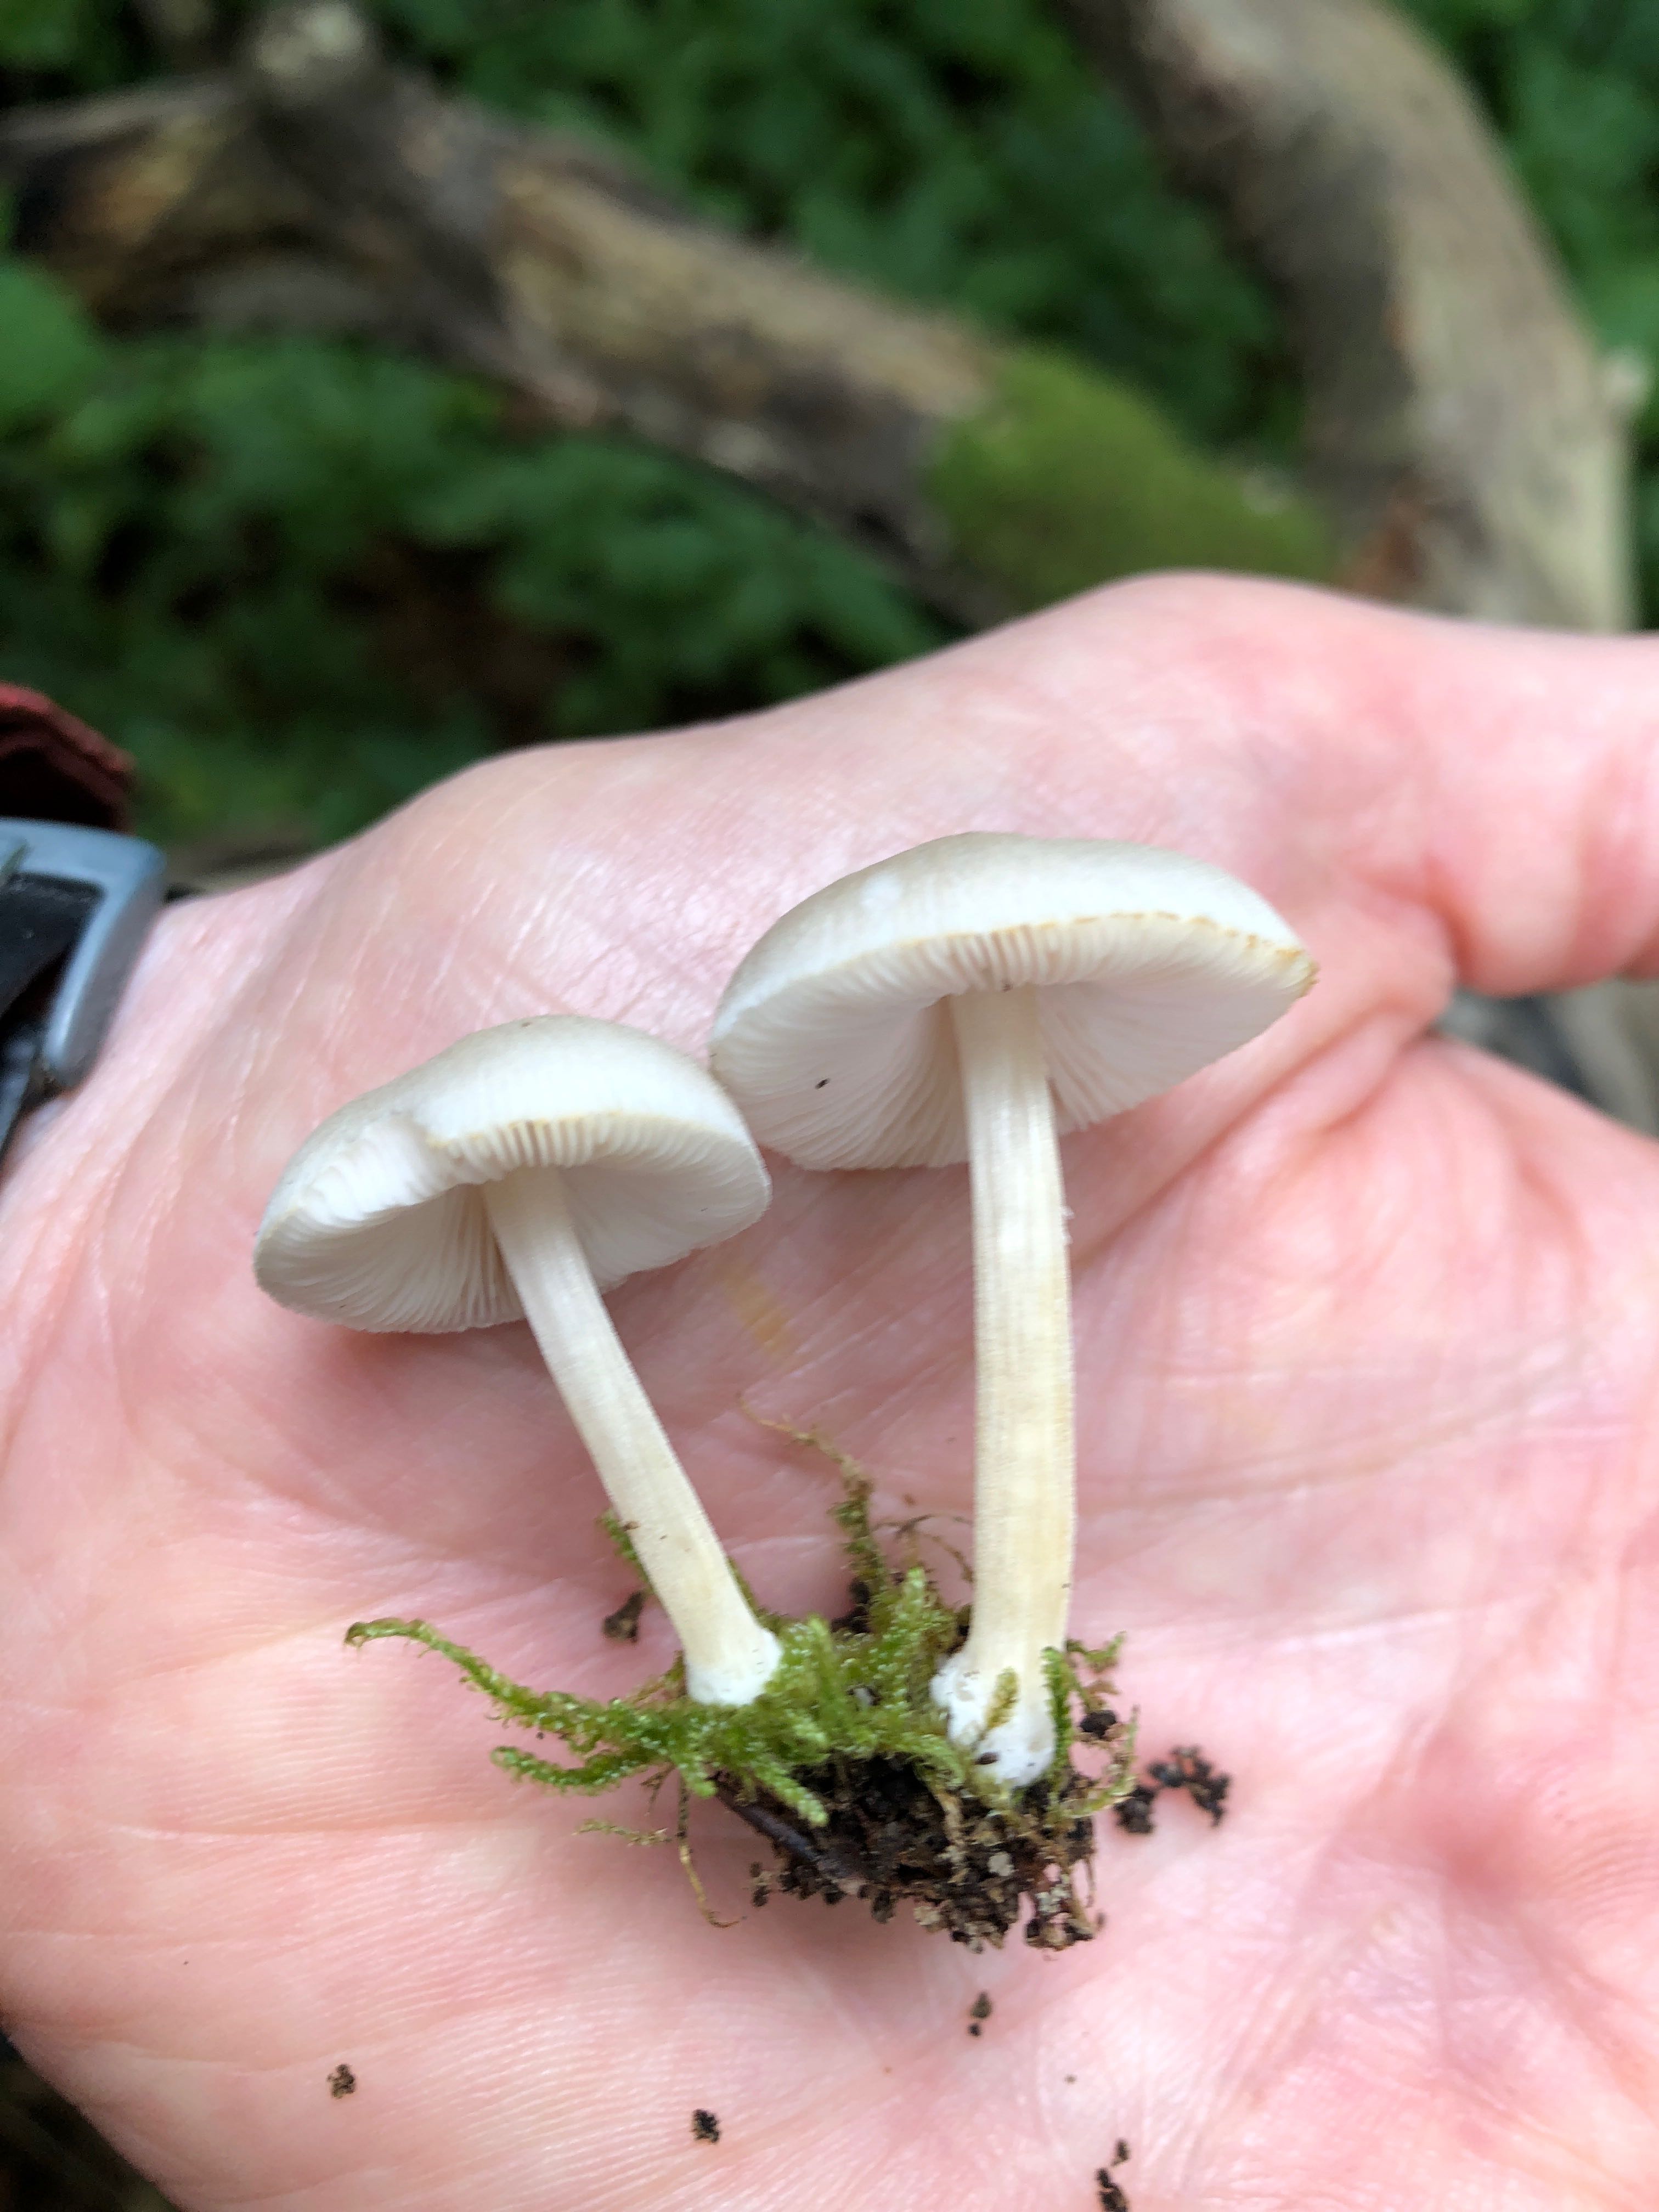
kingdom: Fungi
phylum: Basidiomycota
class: Agaricomycetes
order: Agaricales
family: Pluteaceae
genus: Pluteus
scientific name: Pluteus semibulbosus
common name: knoldet skærmhat
